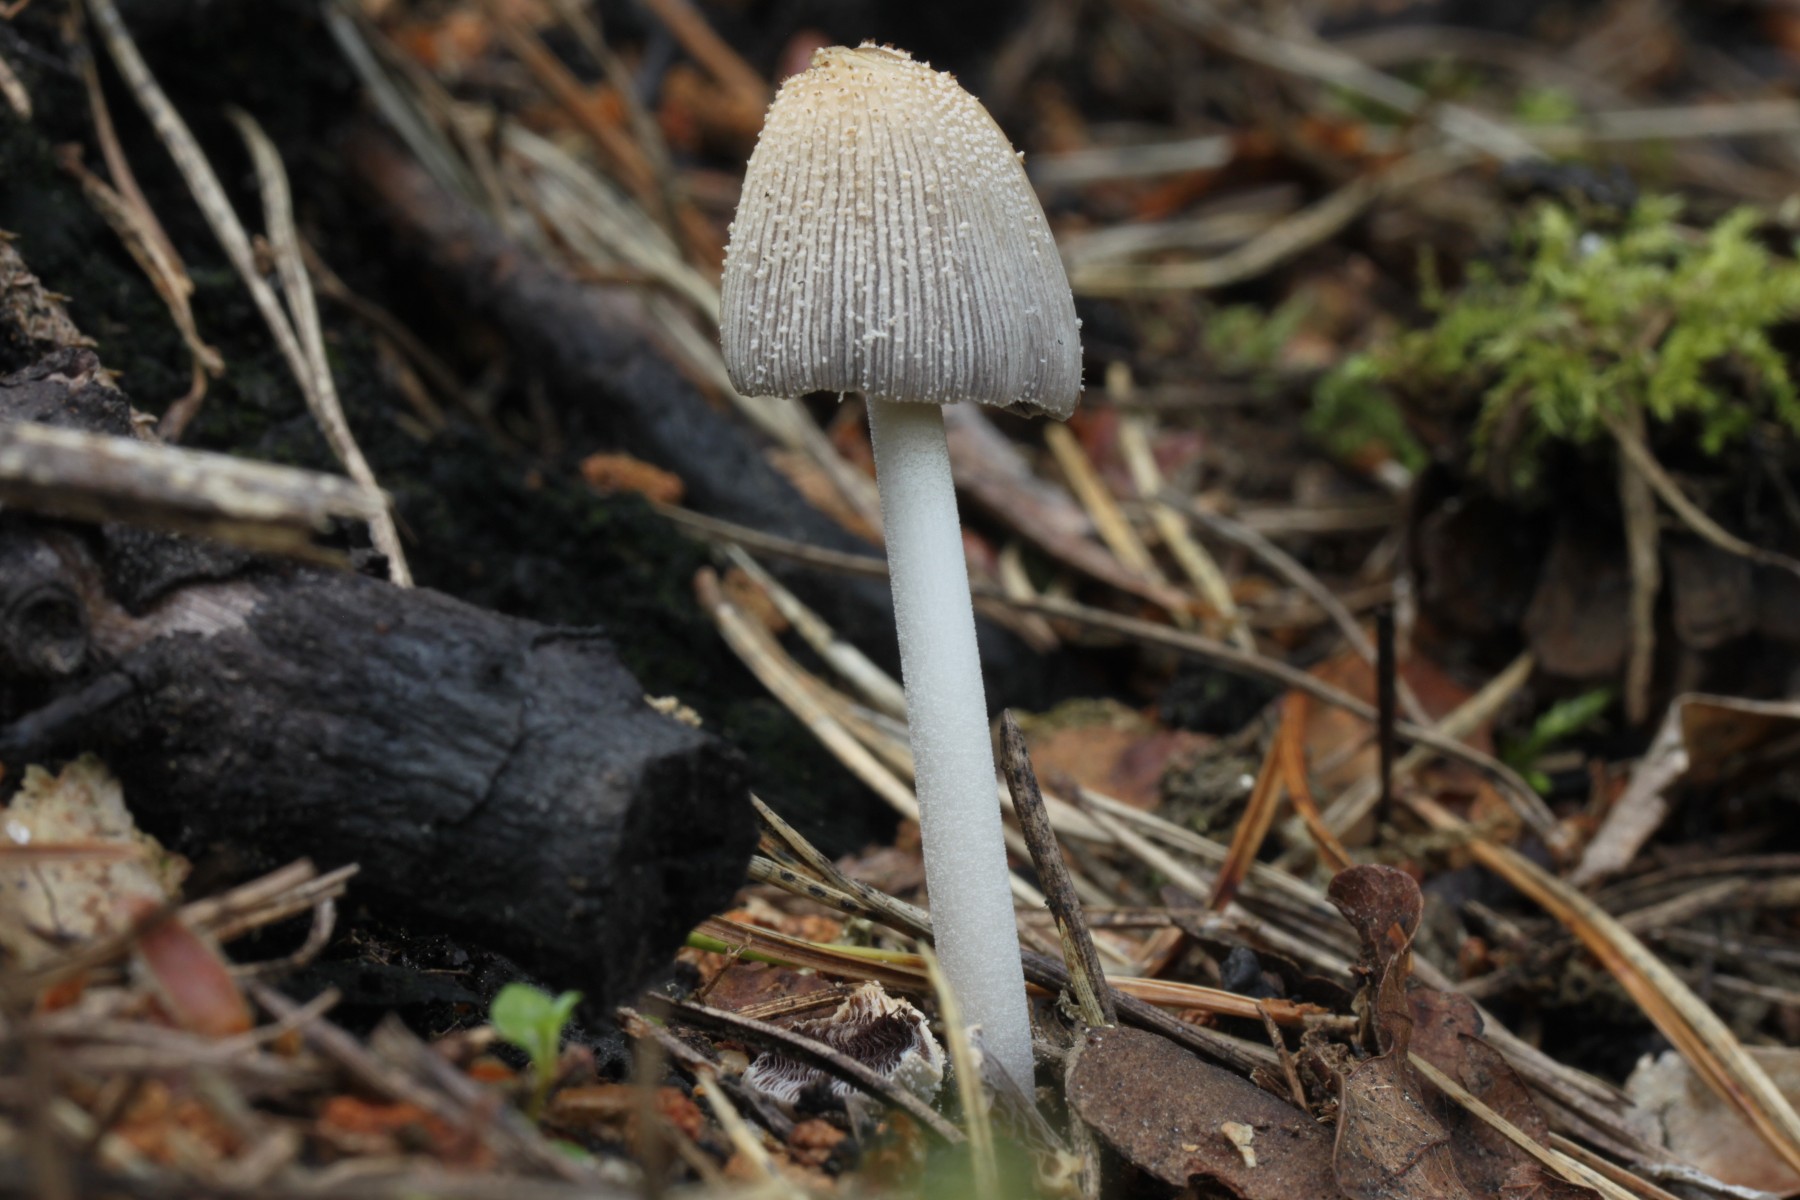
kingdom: Fungi
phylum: Basidiomycota
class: Agaricomycetes
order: Agaricales
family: Psathyrellaceae
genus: Coprinellus
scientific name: Coprinellus xanthothrix
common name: gultrådet blækhat
